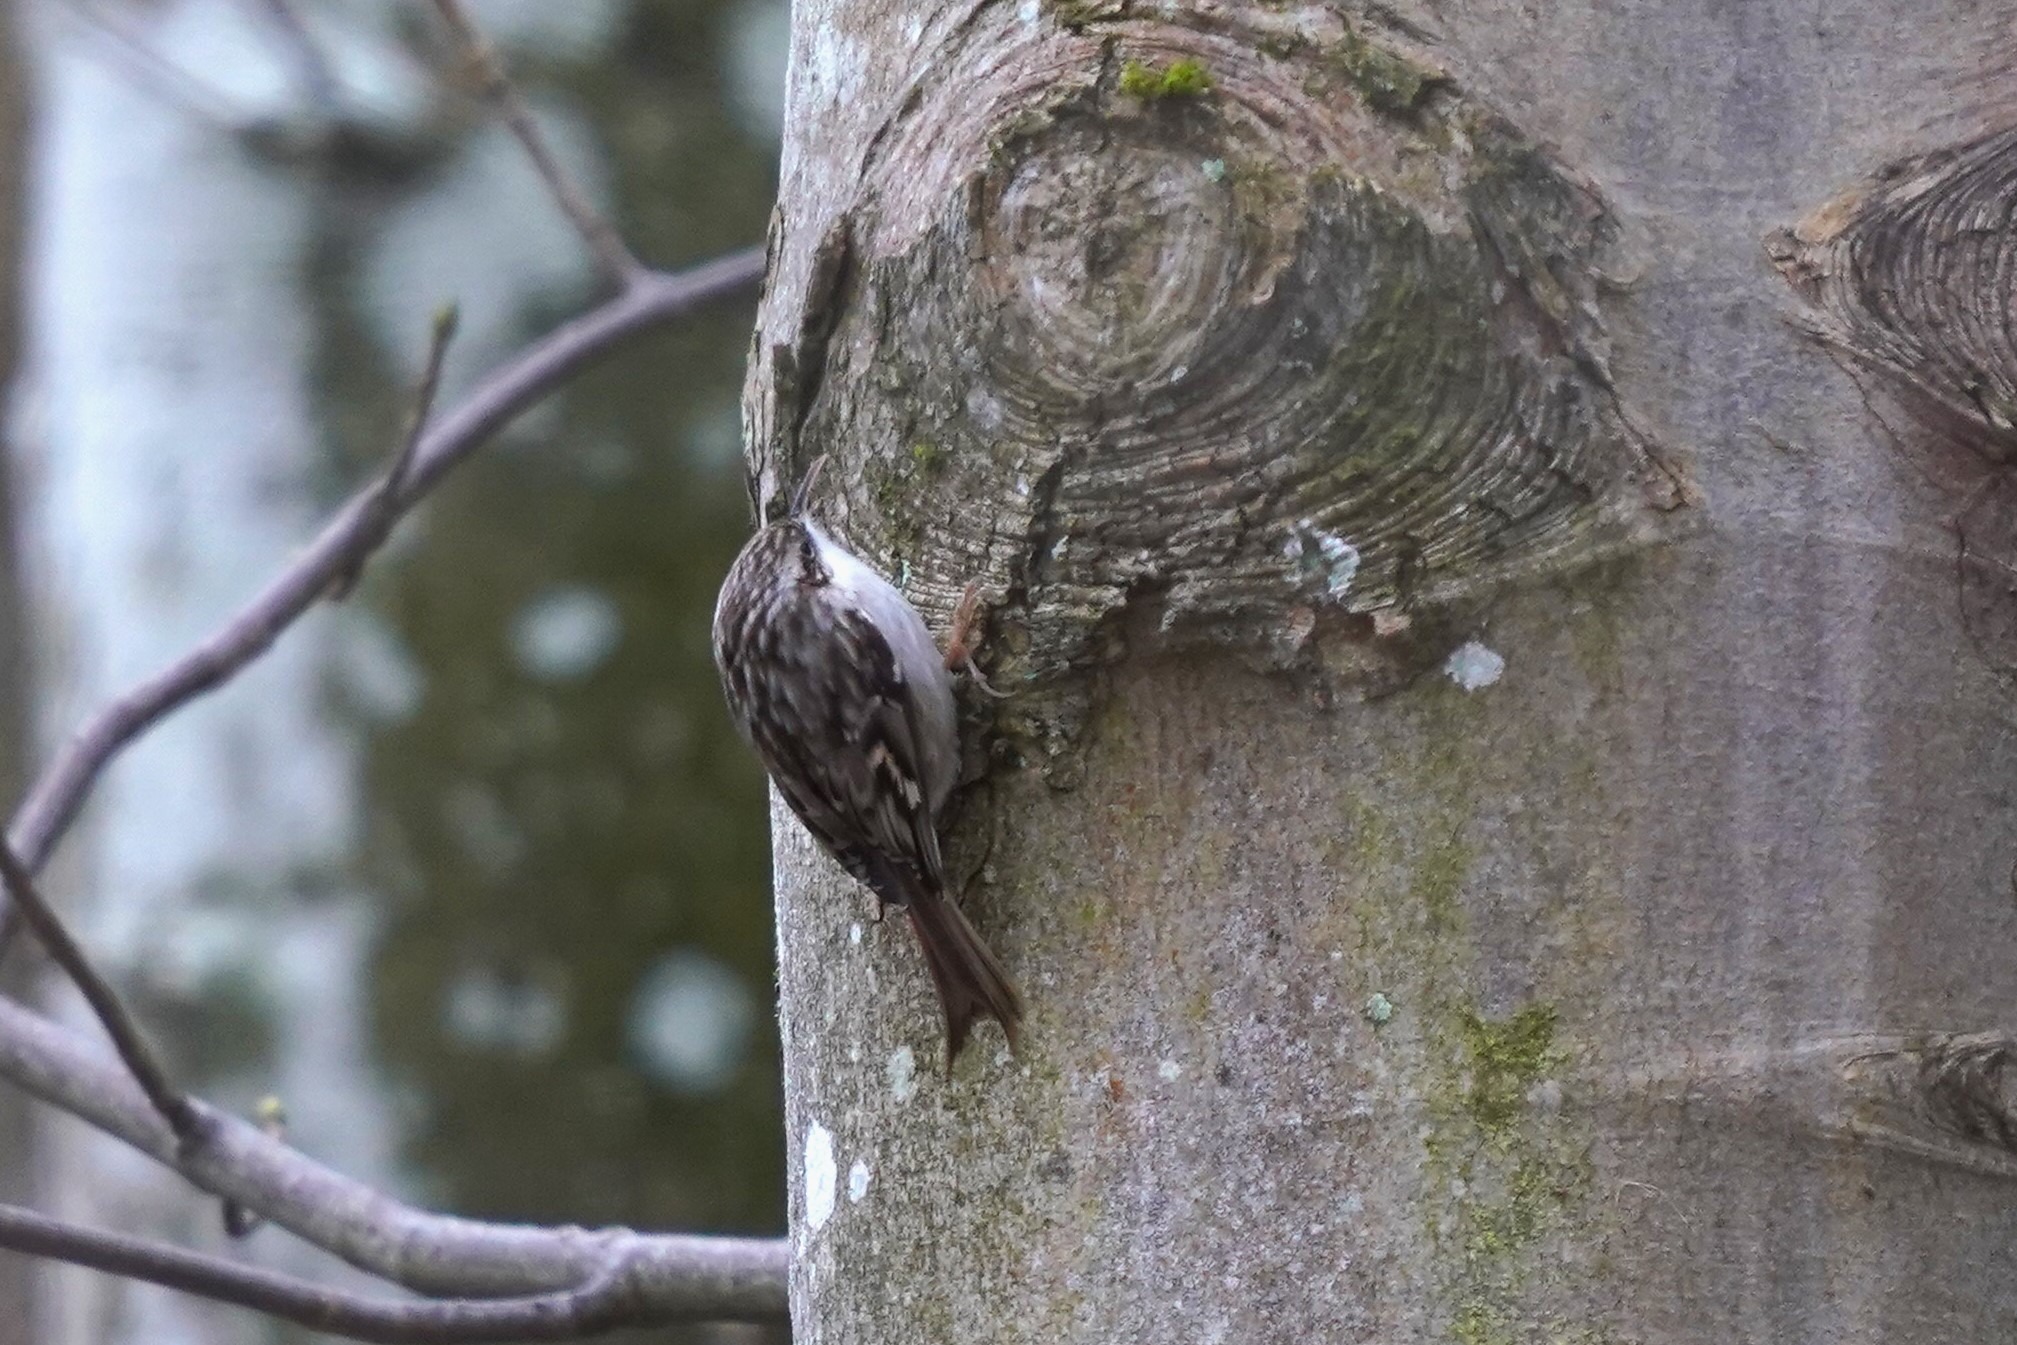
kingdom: Animalia
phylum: Chordata
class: Aves
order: Passeriformes
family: Certhiidae
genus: Certhia
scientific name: Certhia brachydactyla
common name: Korttået træløber
